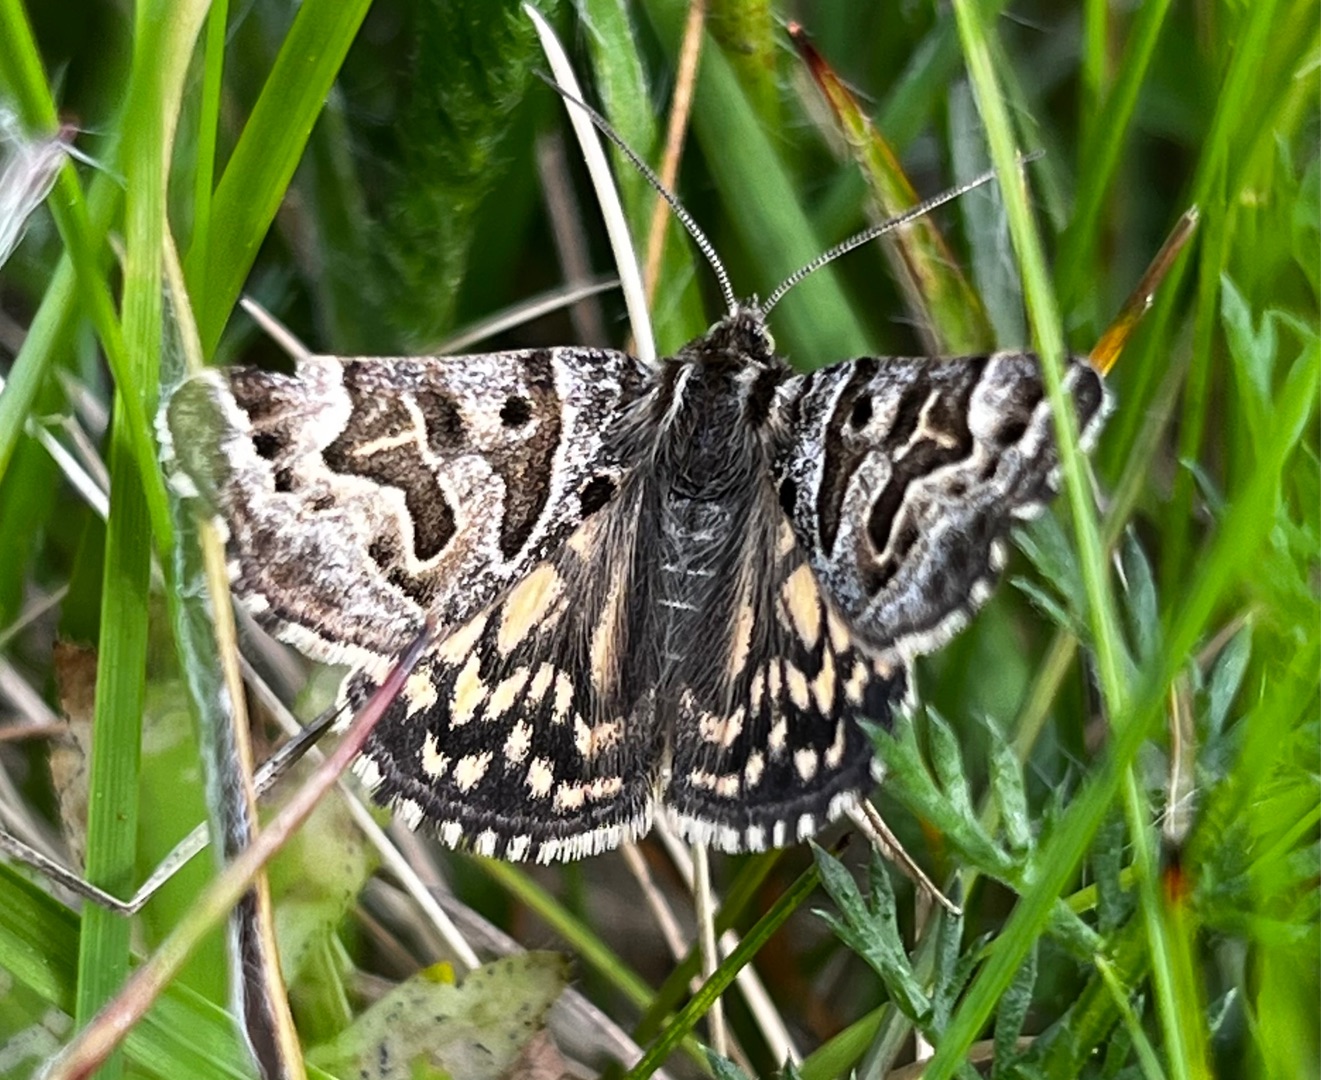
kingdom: Animalia
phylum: Arthropoda
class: Insecta
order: Lepidoptera
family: Erebidae
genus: Callistege
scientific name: Callistege mi
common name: Marmoreret kløverugle
